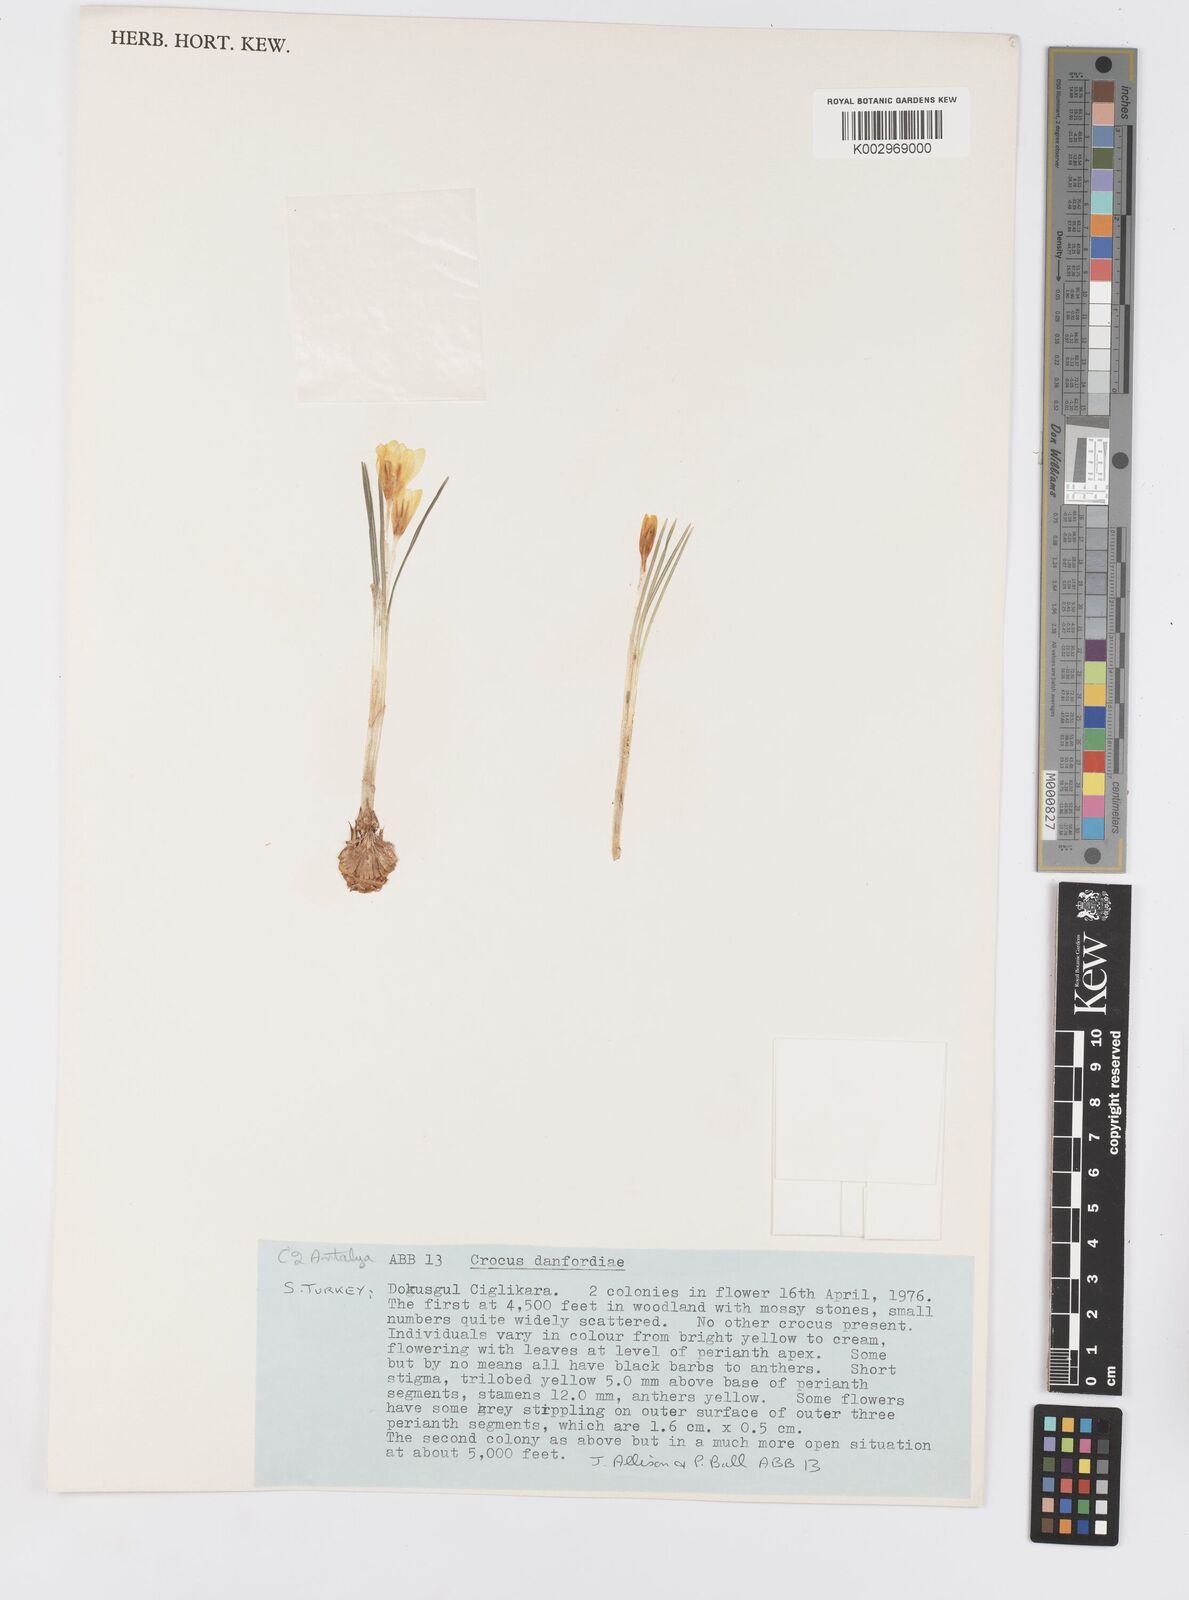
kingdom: Plantae
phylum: Tracheophyta
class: Liliopsida
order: Asparagales
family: Iridaceae
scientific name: Iridaceae
